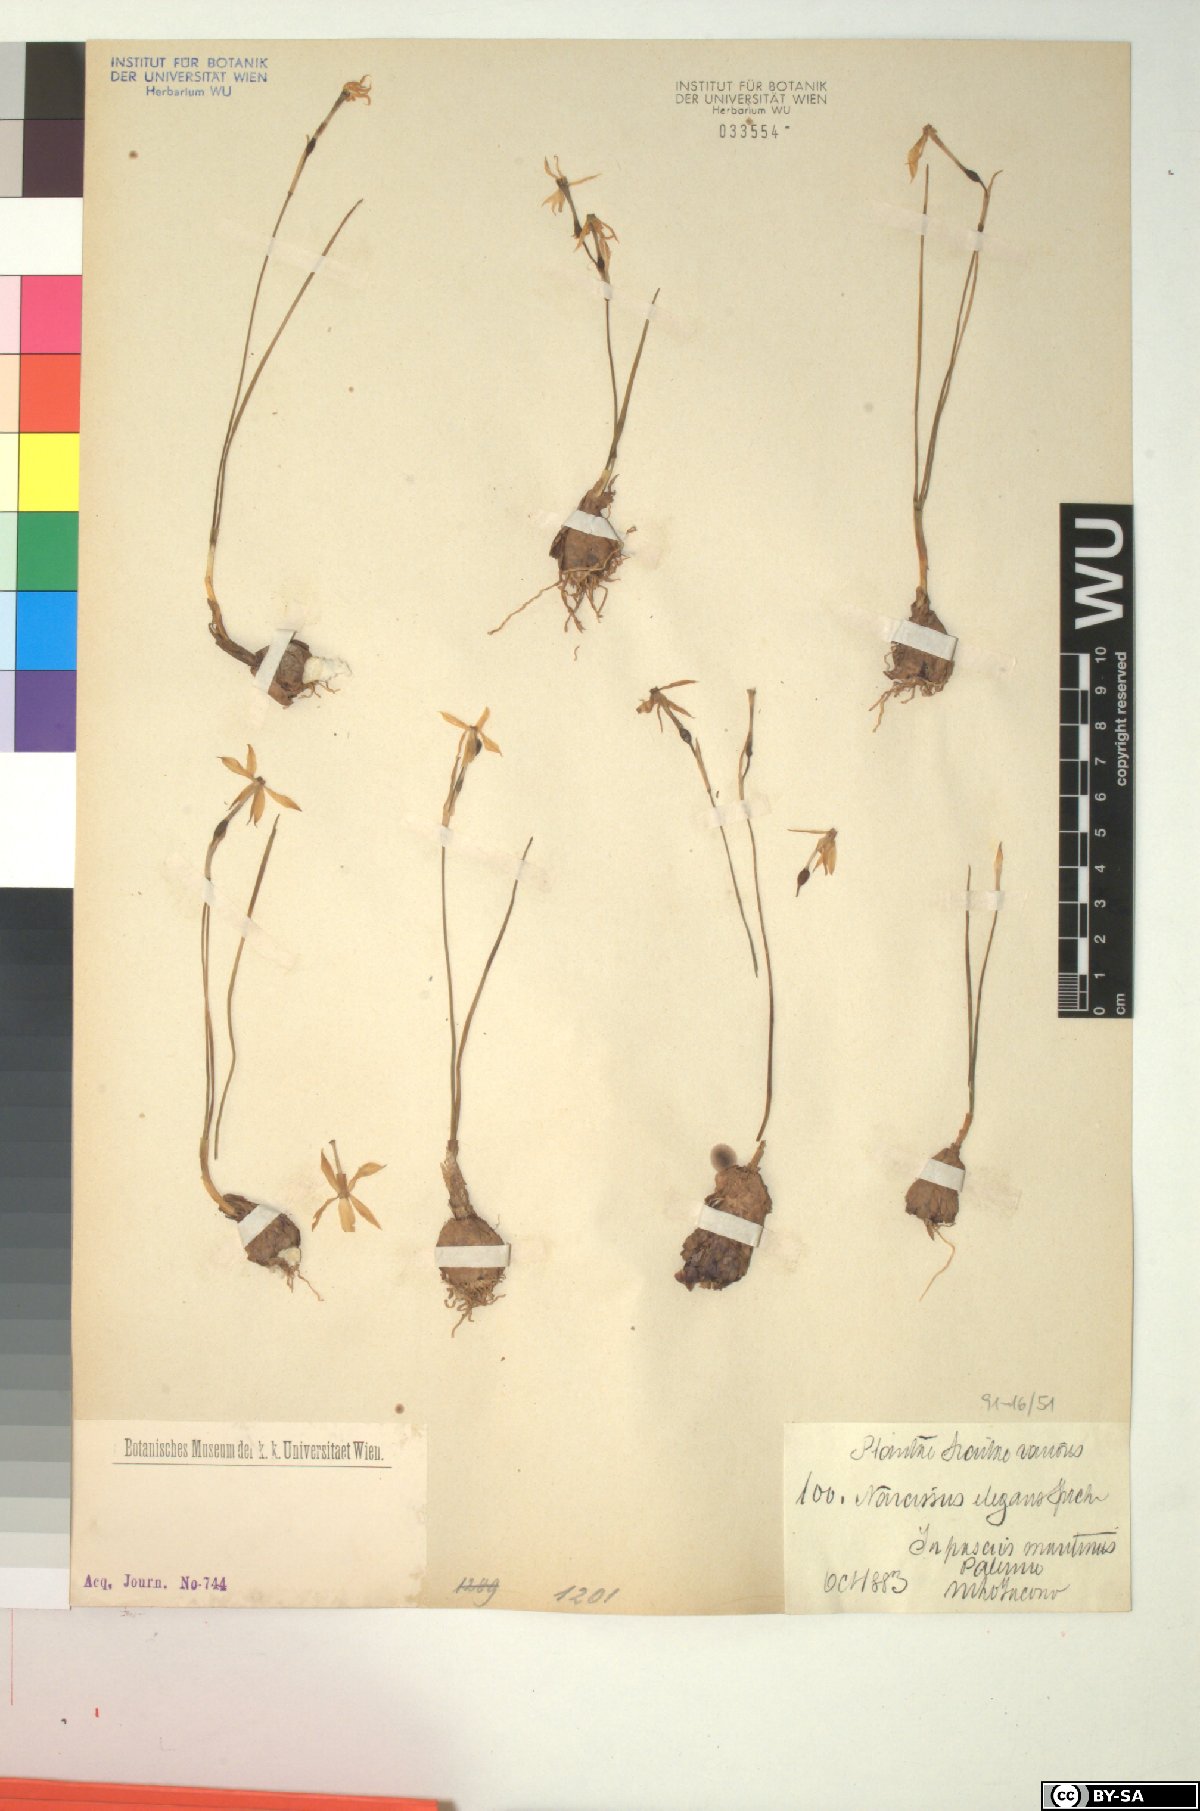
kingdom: Plantae
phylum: Tracheophyta
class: Liliopsida
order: Asparagales
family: Amaryllidaceae
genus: Narcissus
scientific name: Narcissus obsoletus
